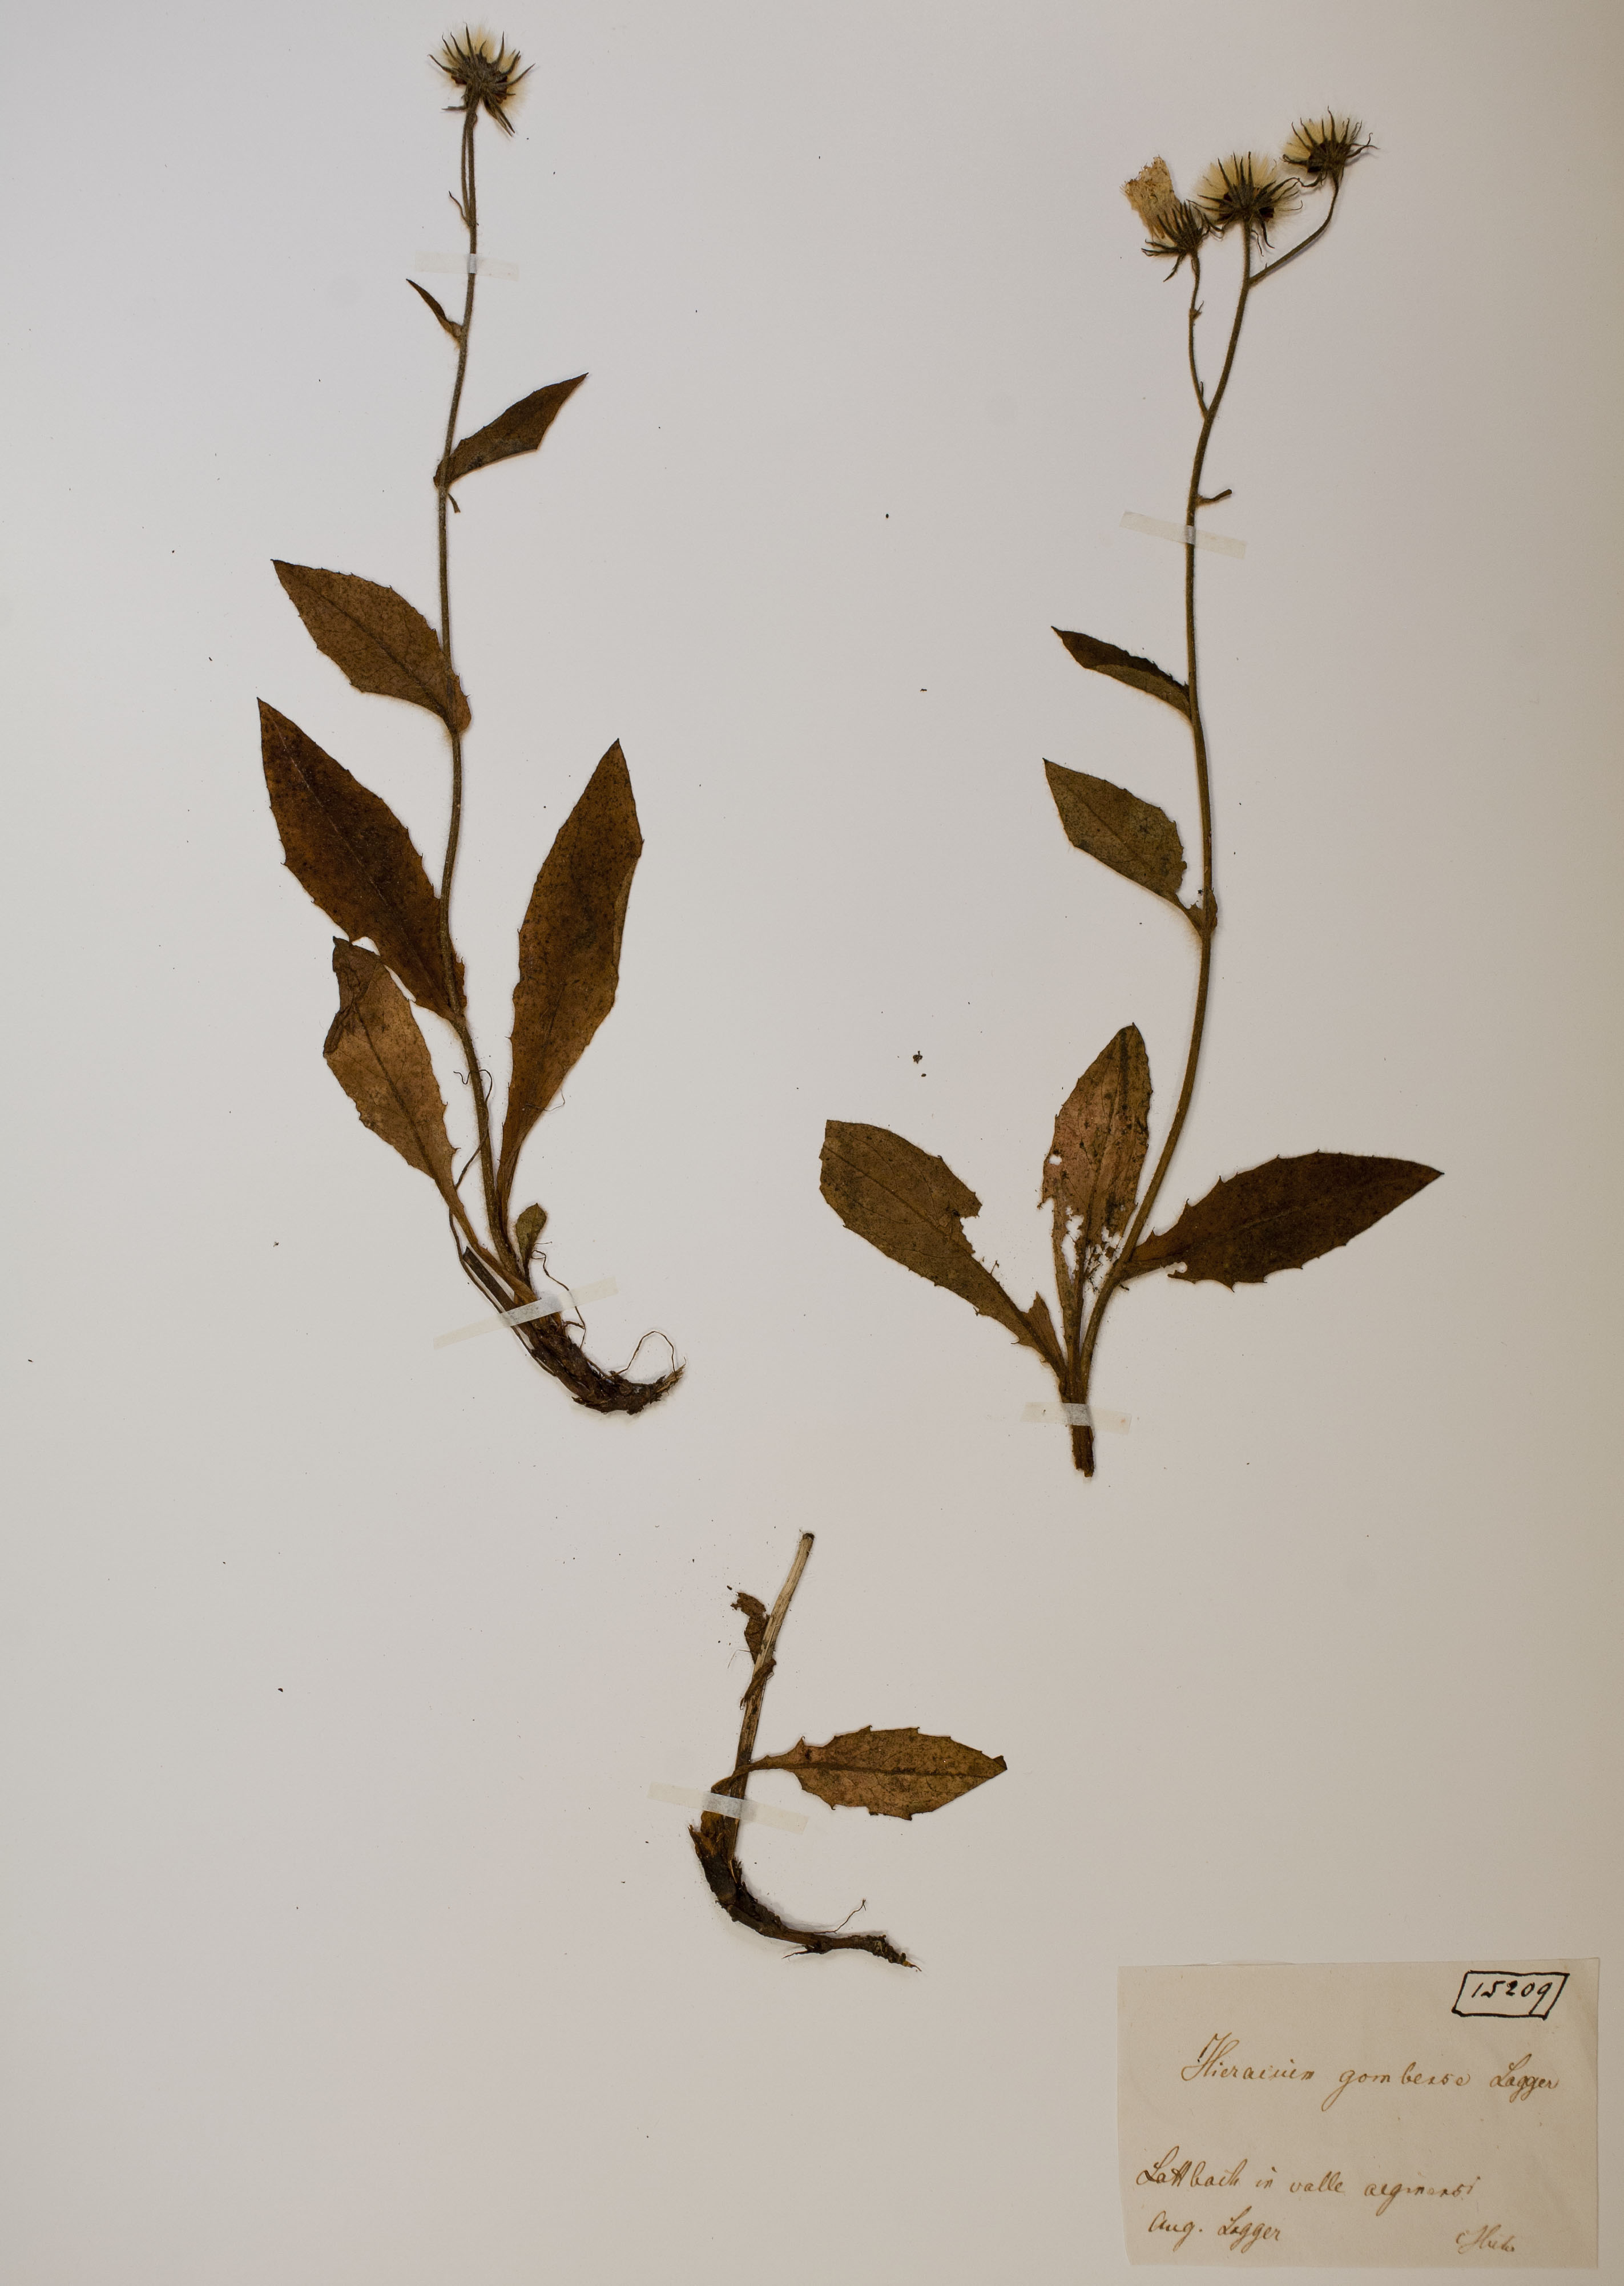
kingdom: Plantae
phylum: Tracheophyta
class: Magnoliopsida
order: Asterales
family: Asteraceae
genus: Hieracium
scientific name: Hieracium gombense
